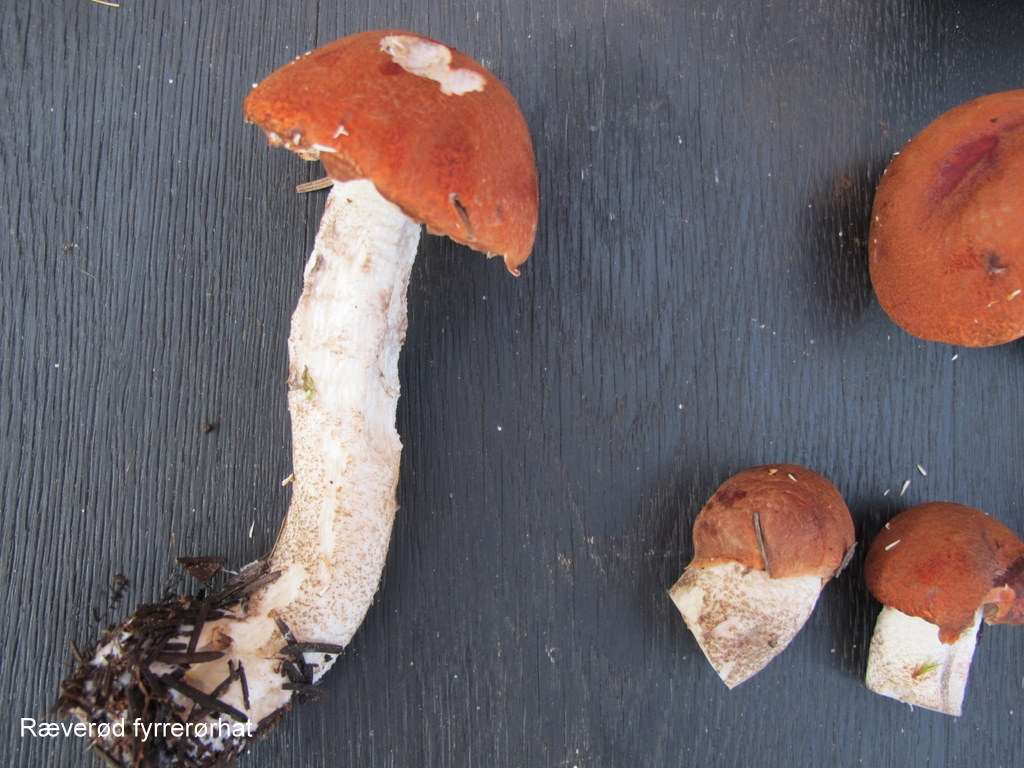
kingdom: Fungi
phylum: Basidiomycota
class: Agaricomycetes
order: Boletales
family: Boletaceae
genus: Leccinum
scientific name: Leccinum
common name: skælrørhat
